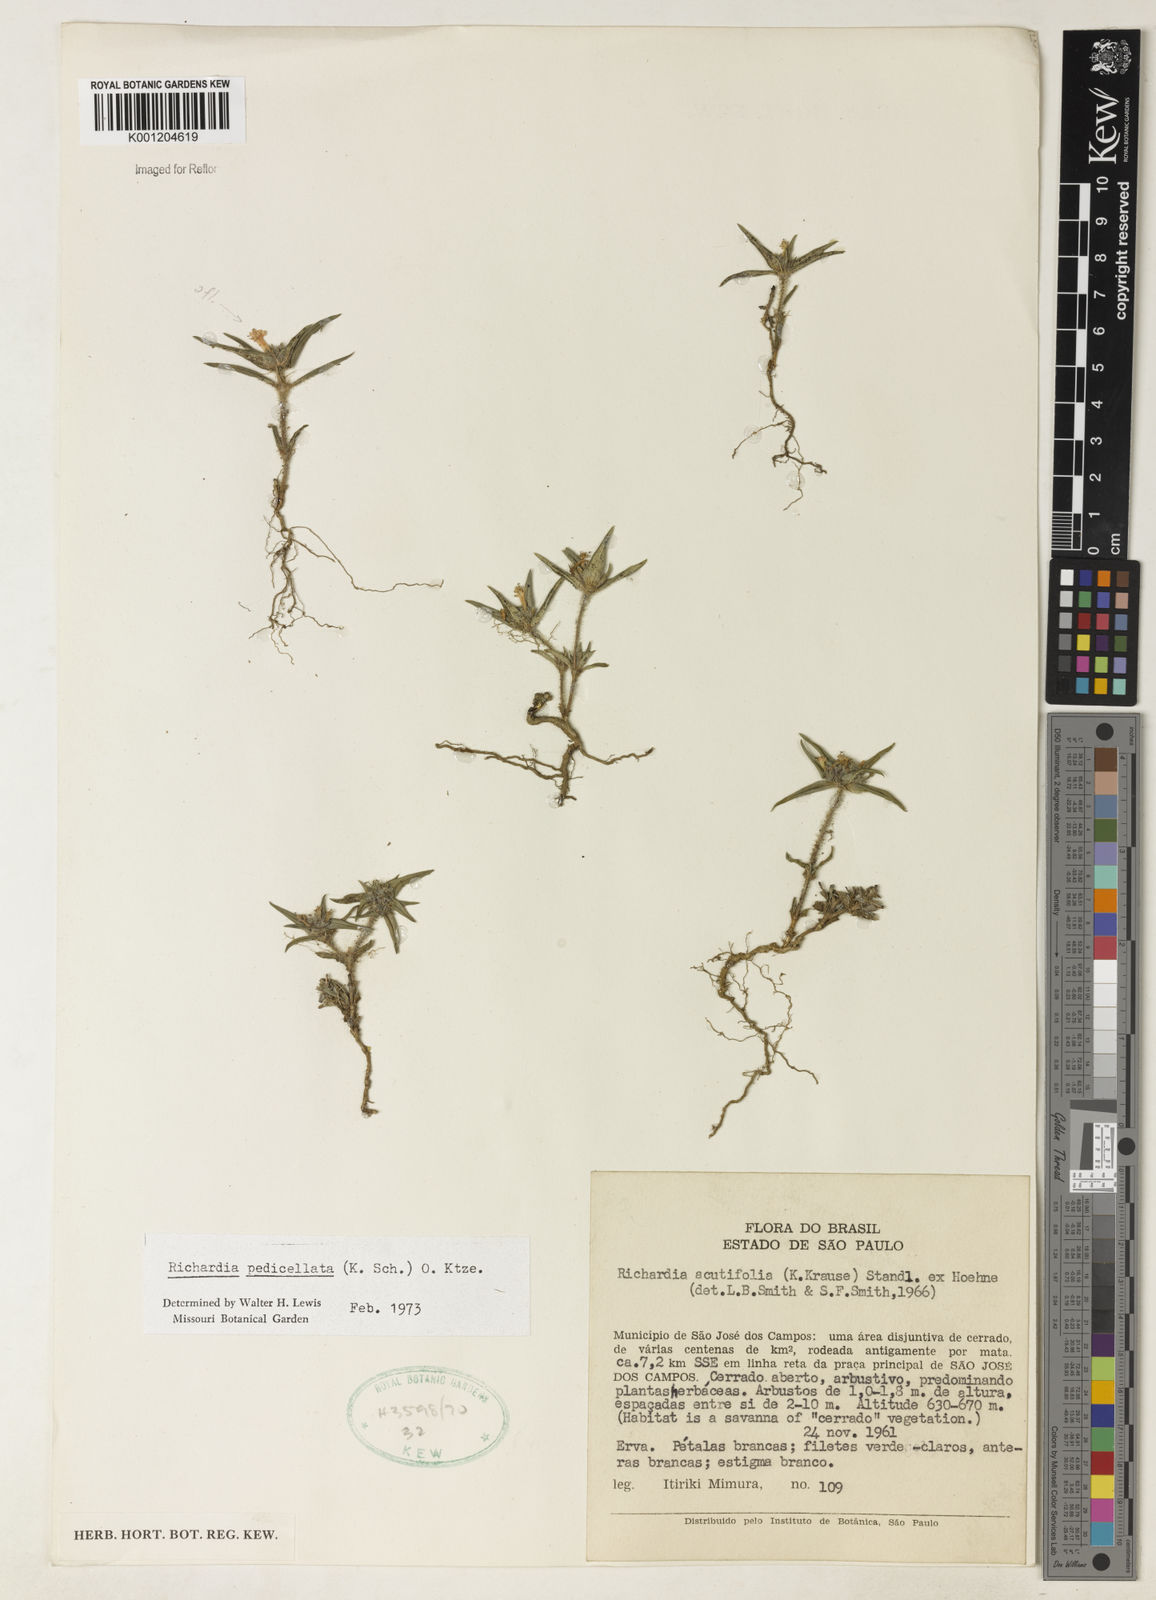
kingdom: Plantae
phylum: Tracheophyta
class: Magnoliopsida
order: Gentianales
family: Rubiaceae
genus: Richardia
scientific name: Richardia pedicellata
